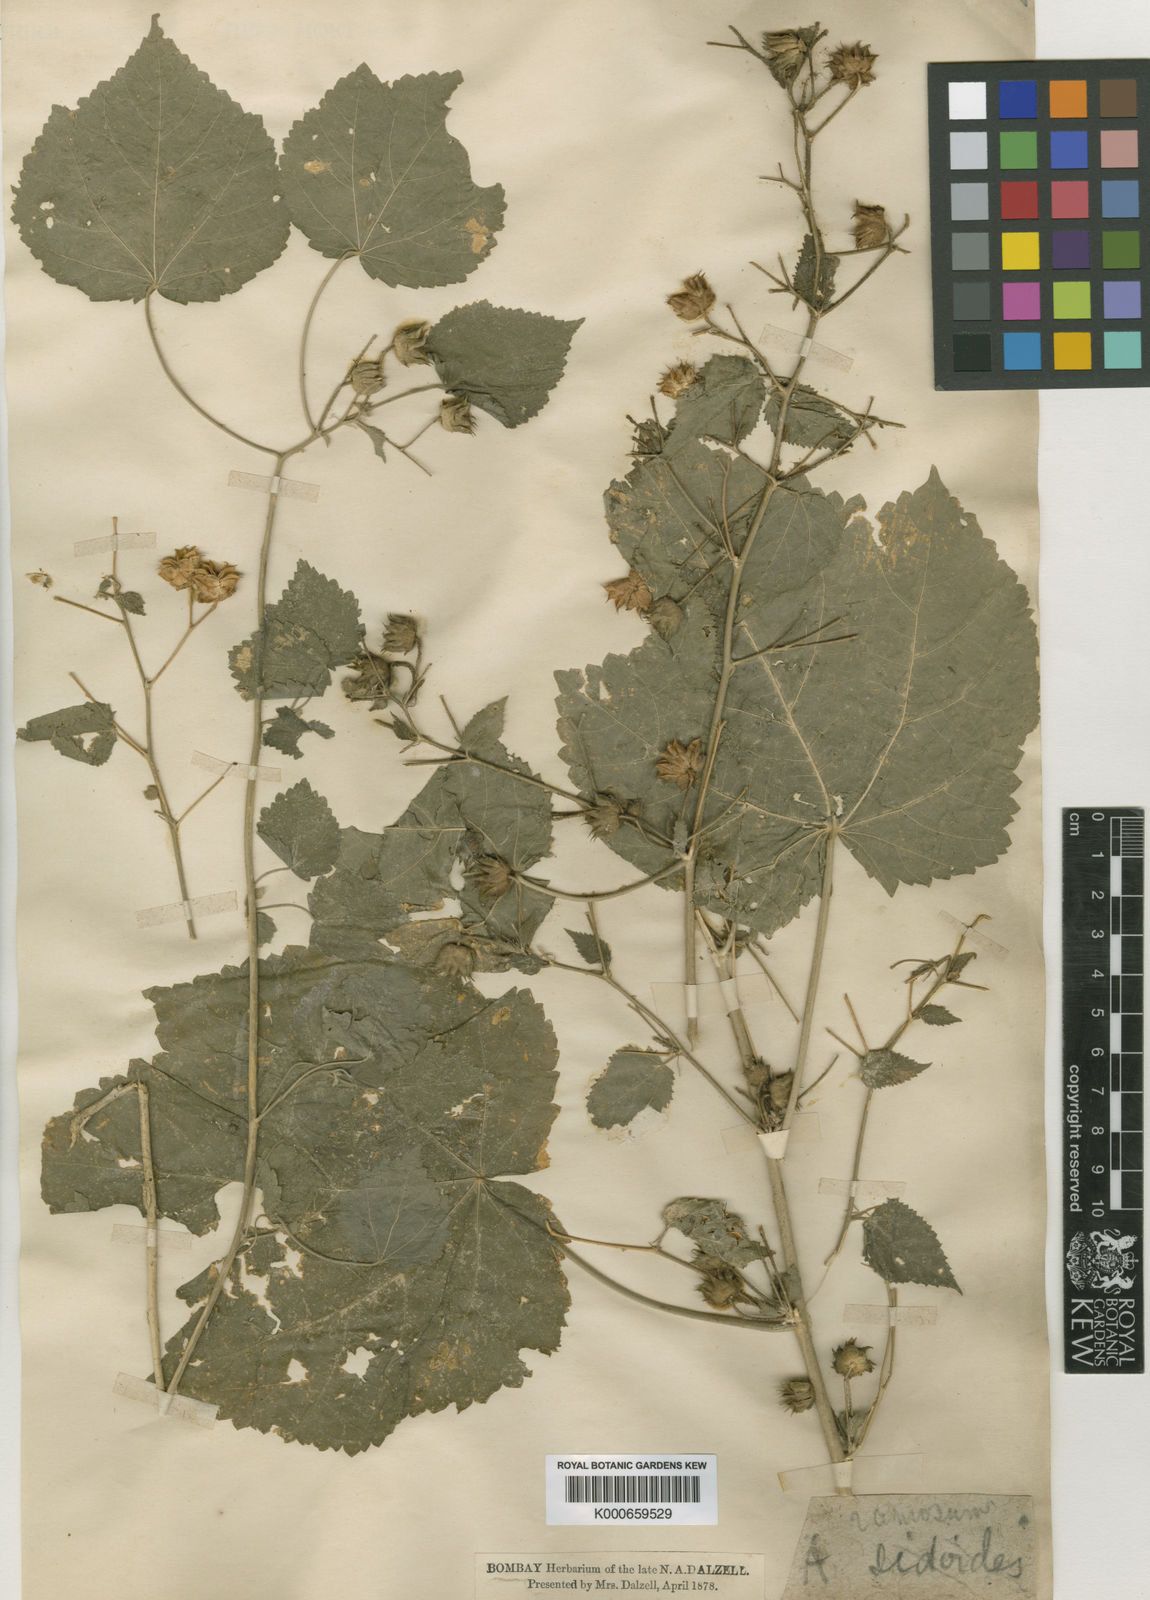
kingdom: Plantae
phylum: Tracheophyta
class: Magnoliopsida
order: Malvales
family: Malvaceae
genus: Abutilon
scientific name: Abutilon ramosum
